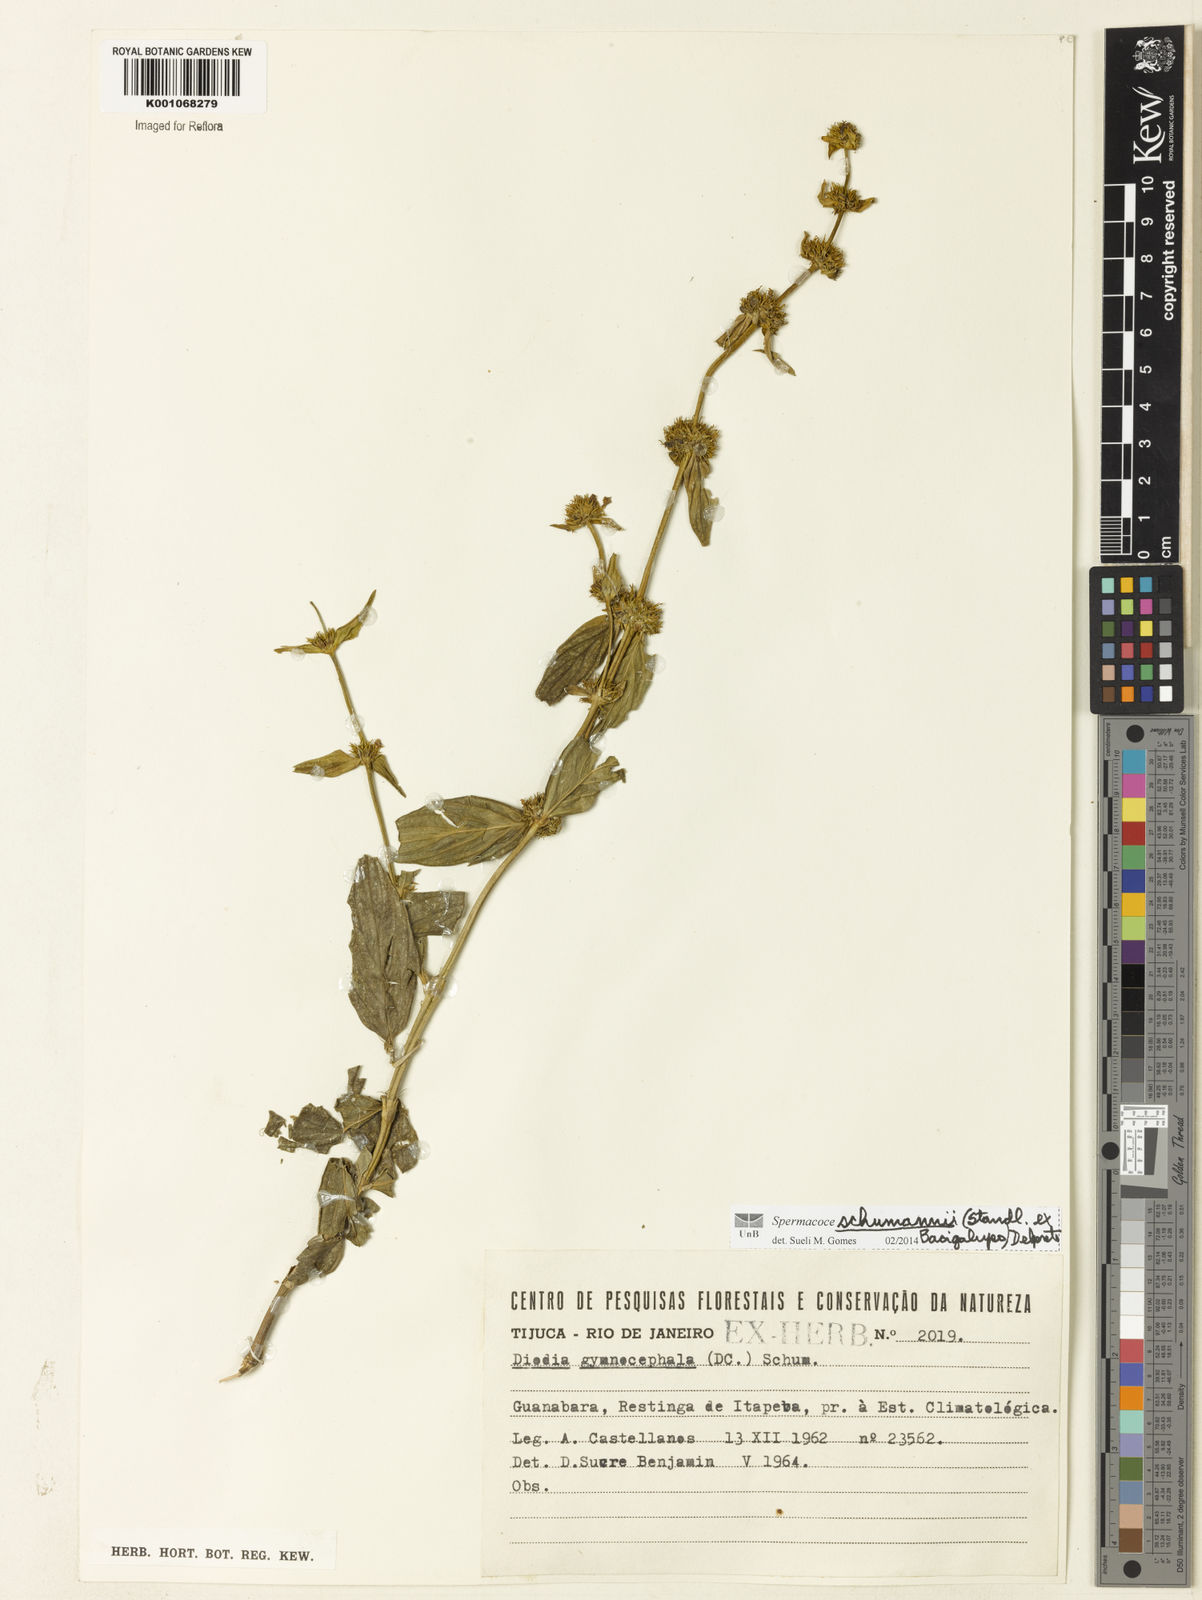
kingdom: Plantae
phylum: Tracheophyta
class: Magnoliopsida
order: Gentianales
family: Rubiaceae
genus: Spermacoce
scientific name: Spermacoce schumannii
